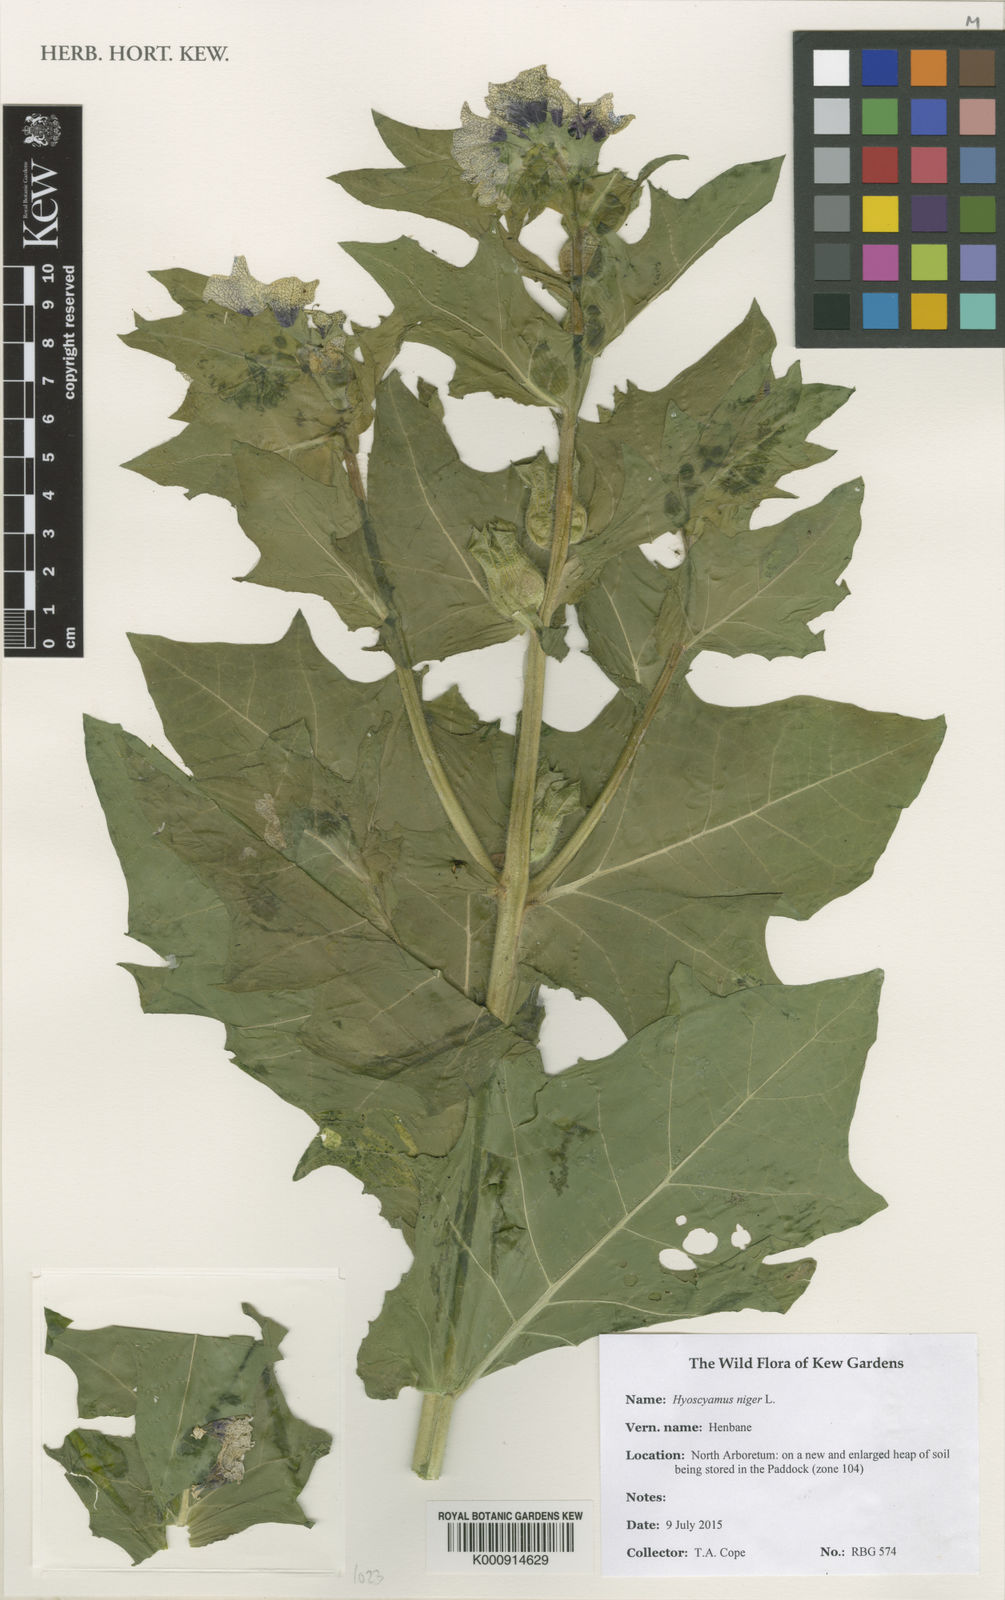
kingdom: Plantae
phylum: Tracheophyta
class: Magnoliopsida
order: Solanales
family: Solanaceae
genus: Hyoscyamus
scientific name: Hyoscyamus niger
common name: Henbane
